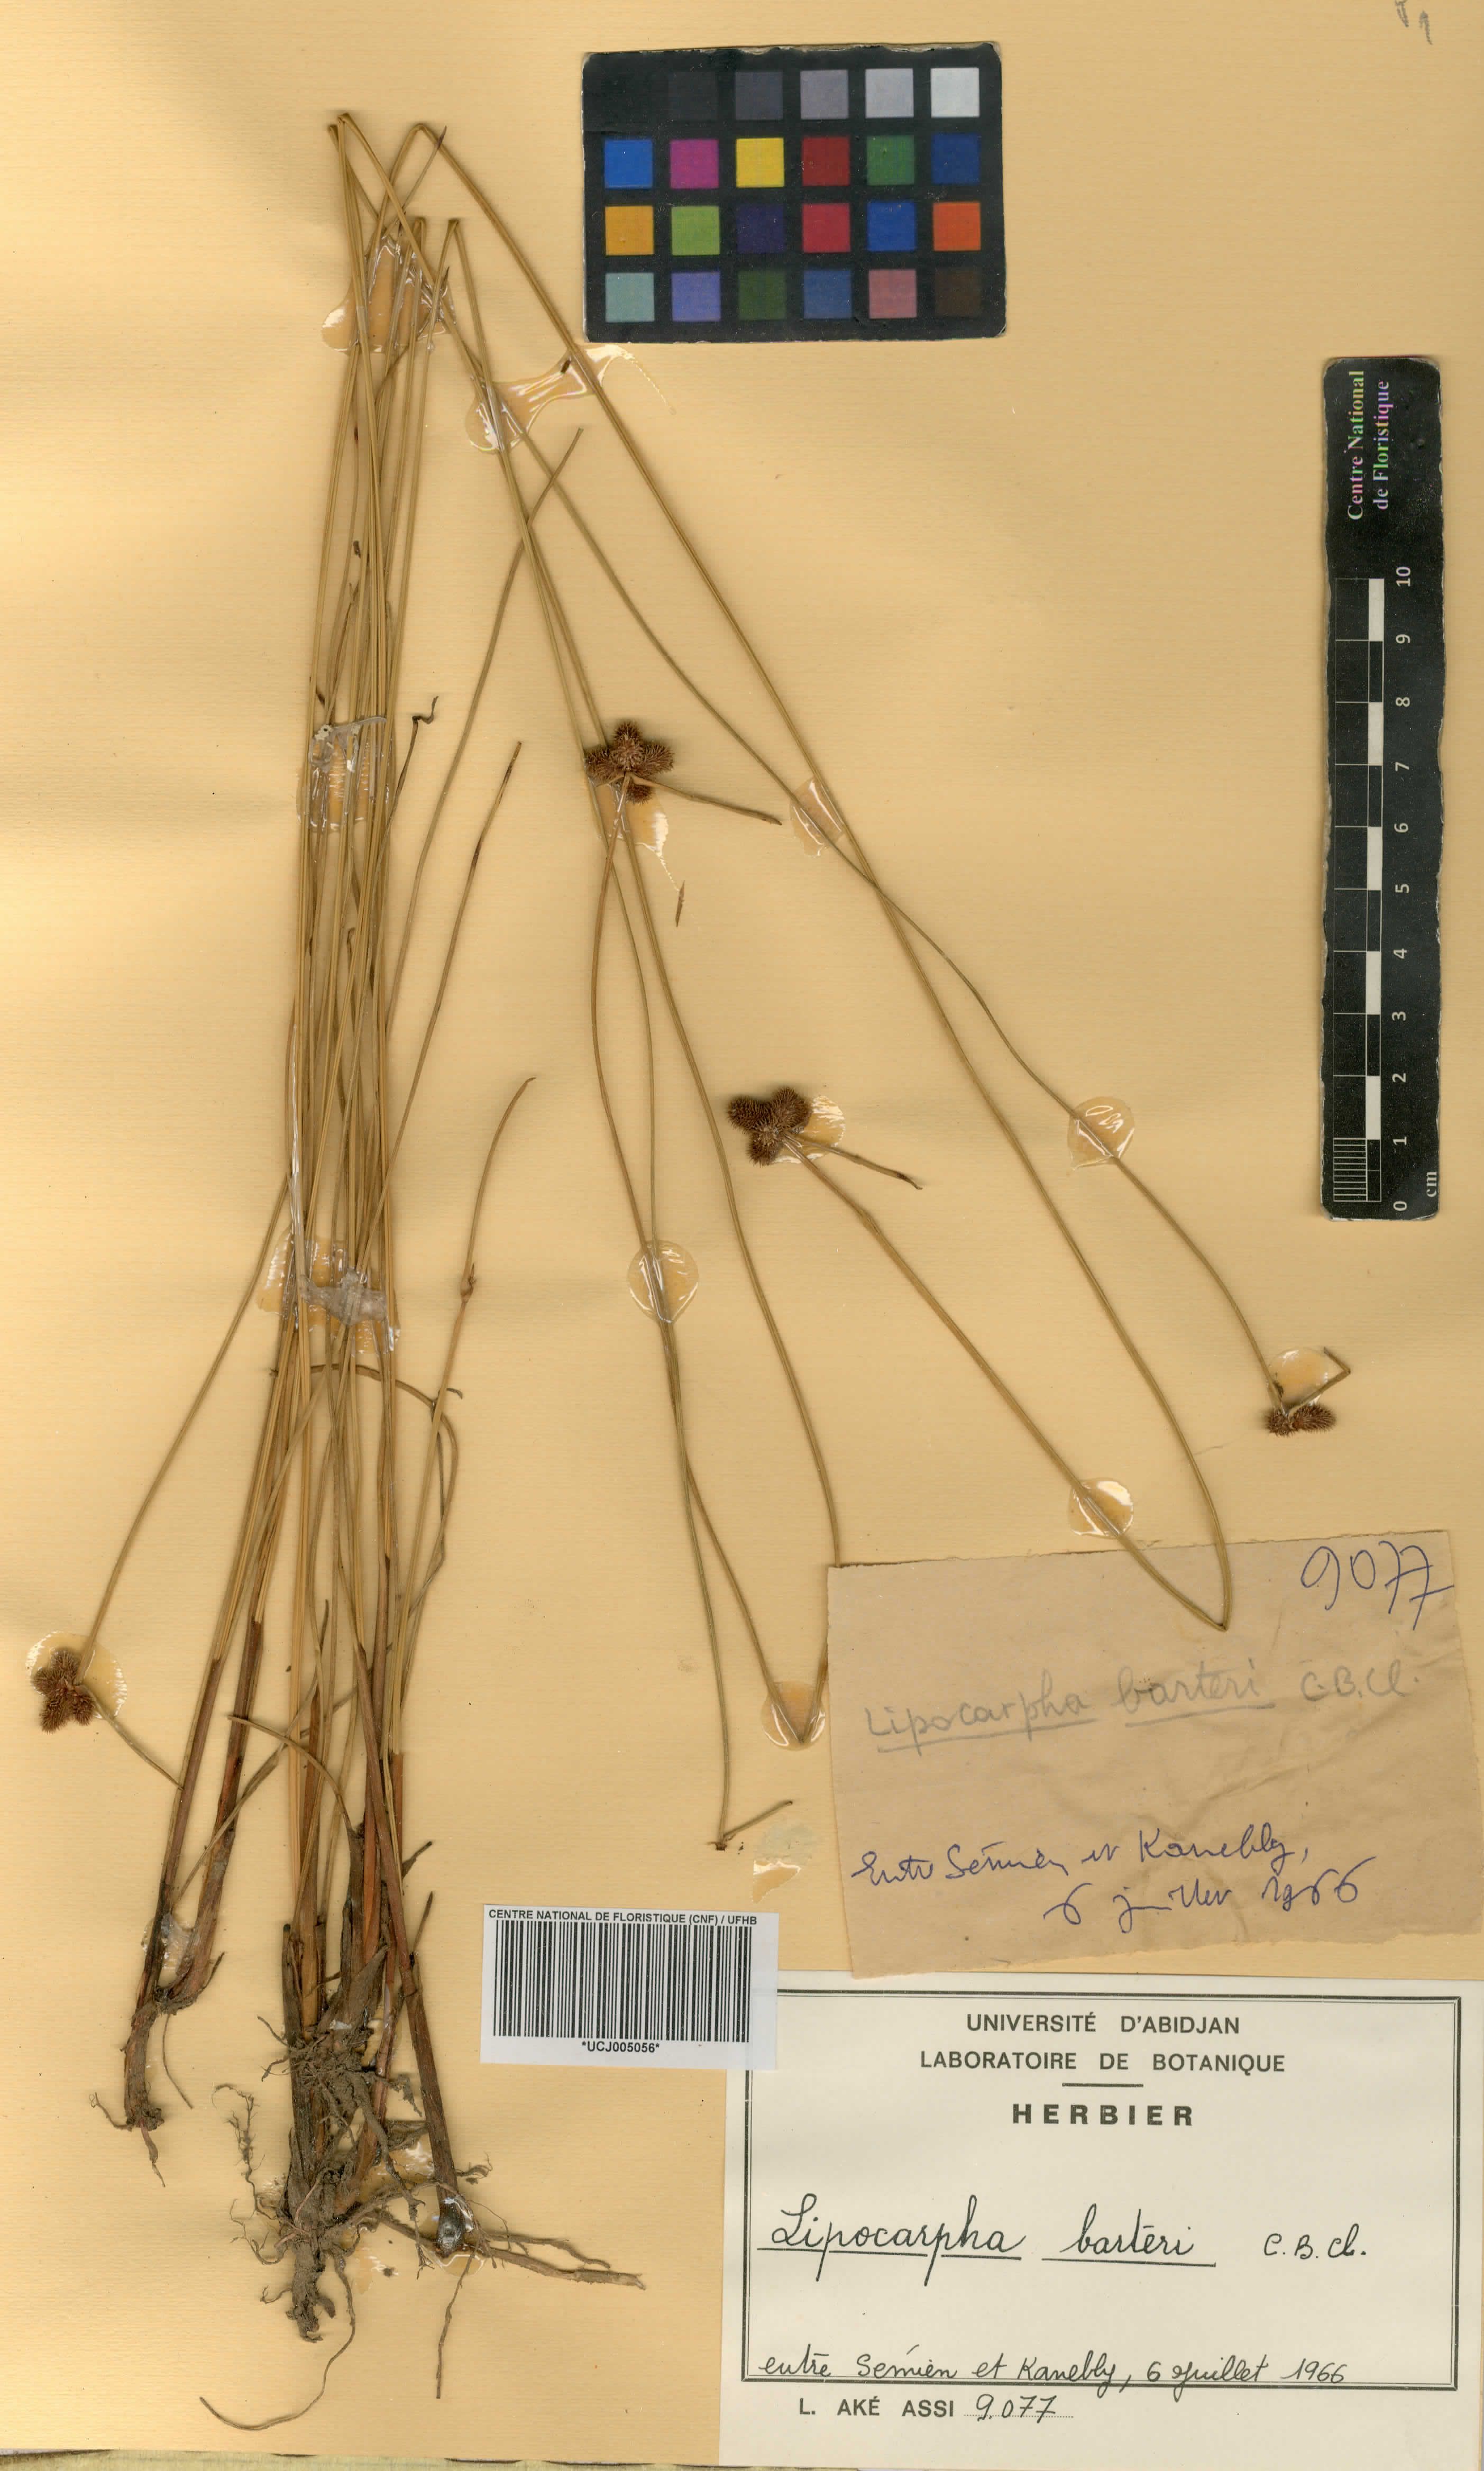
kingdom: Plantae
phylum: Tracheophyta
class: Liliopsida
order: Poales
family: Cyperaceae
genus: Cyperus
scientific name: Cyperus neobarteri
